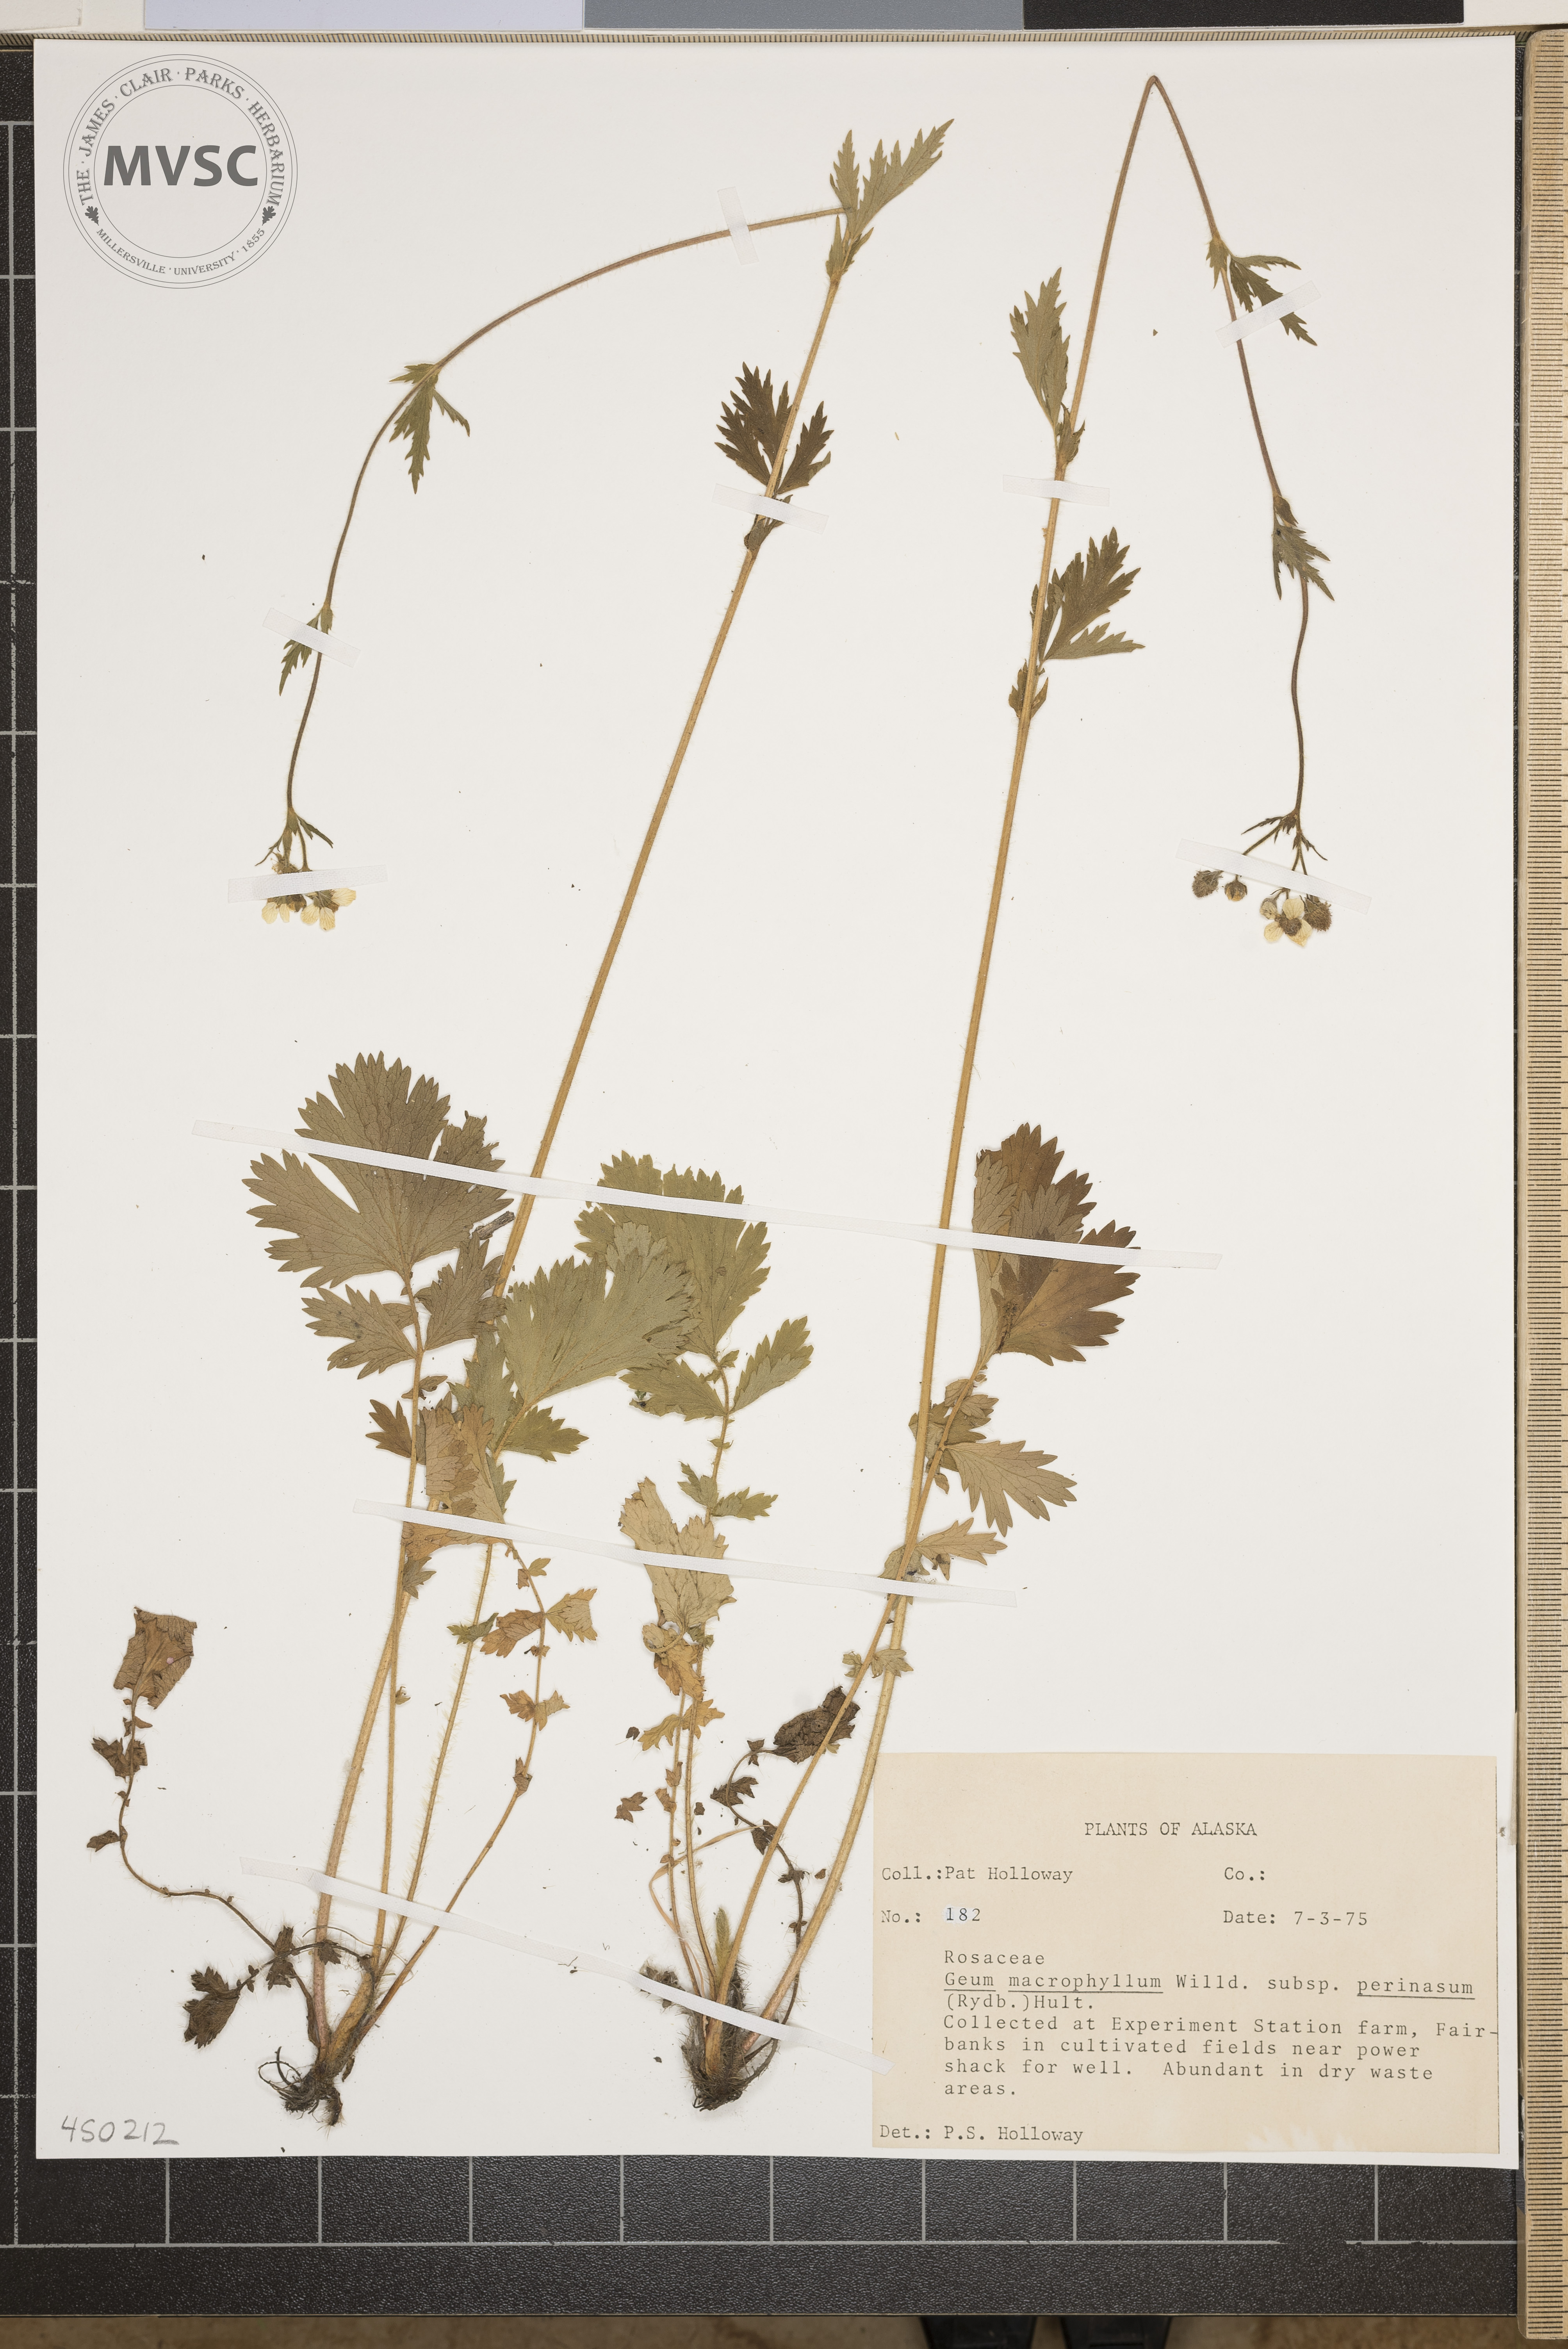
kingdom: Plantae
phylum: Tracheophyta
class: Magnoliopsida
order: Rosales
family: Rosaceae
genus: Geum
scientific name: Geum macrophyllum
